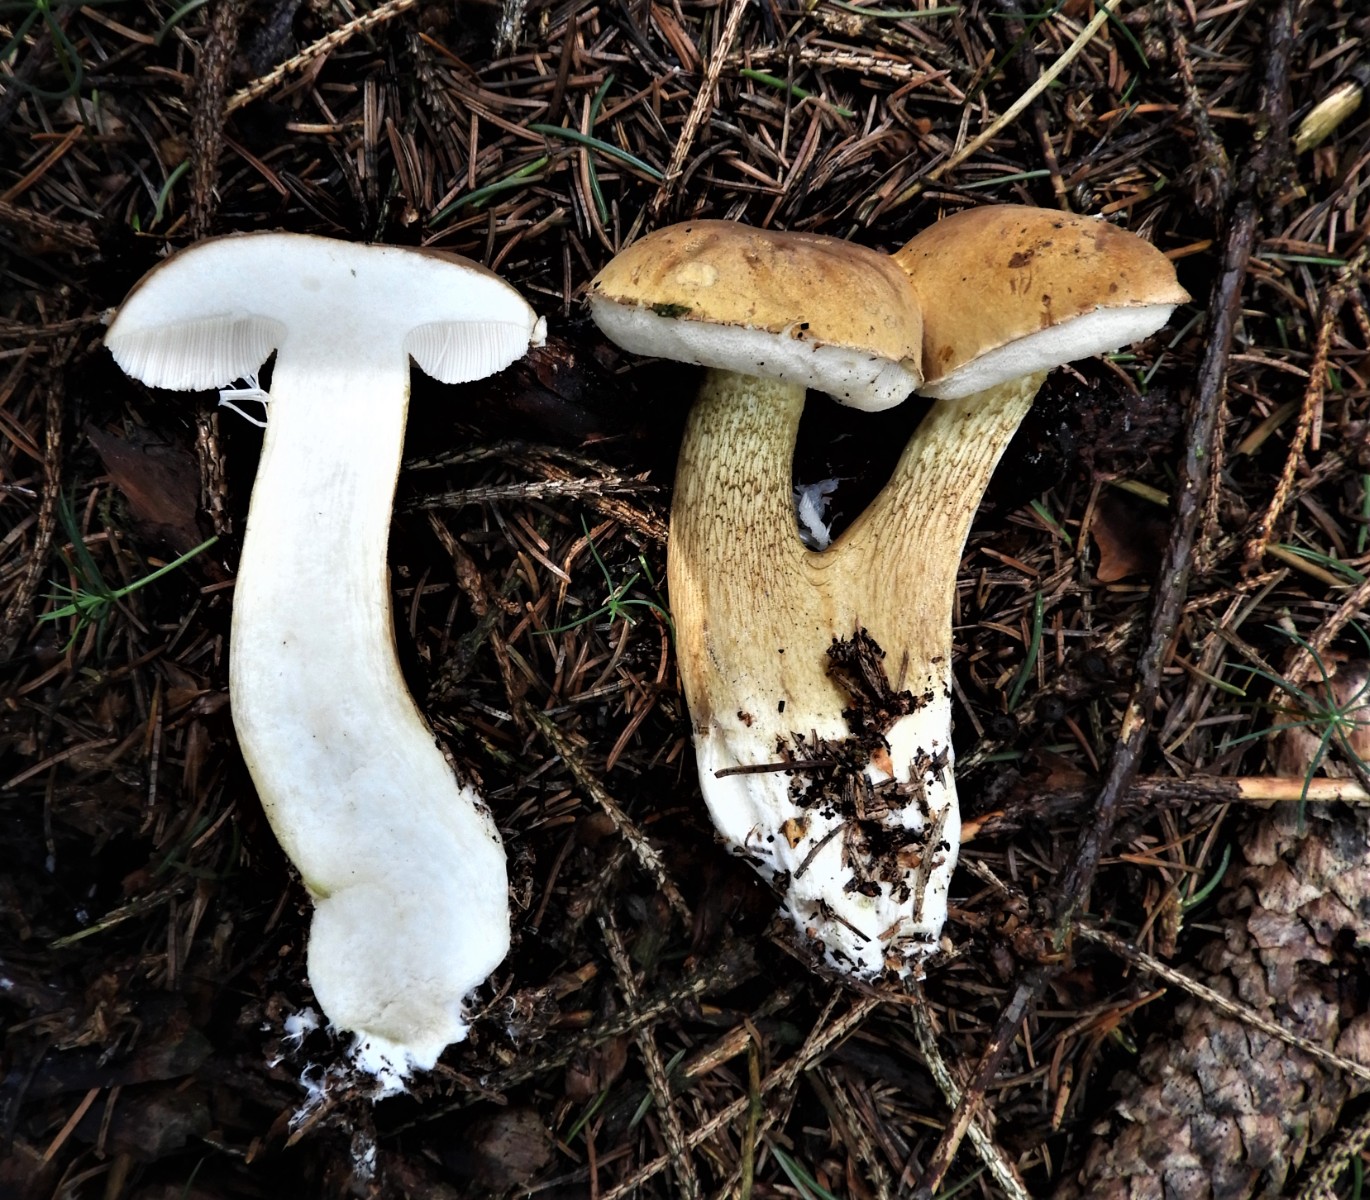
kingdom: Fungi
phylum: Basidiomycota
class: Agaricomycetes
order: Boletales
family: Boletaceae
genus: Tylopilus
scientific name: Tylopilus felleus
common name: galderørhat
